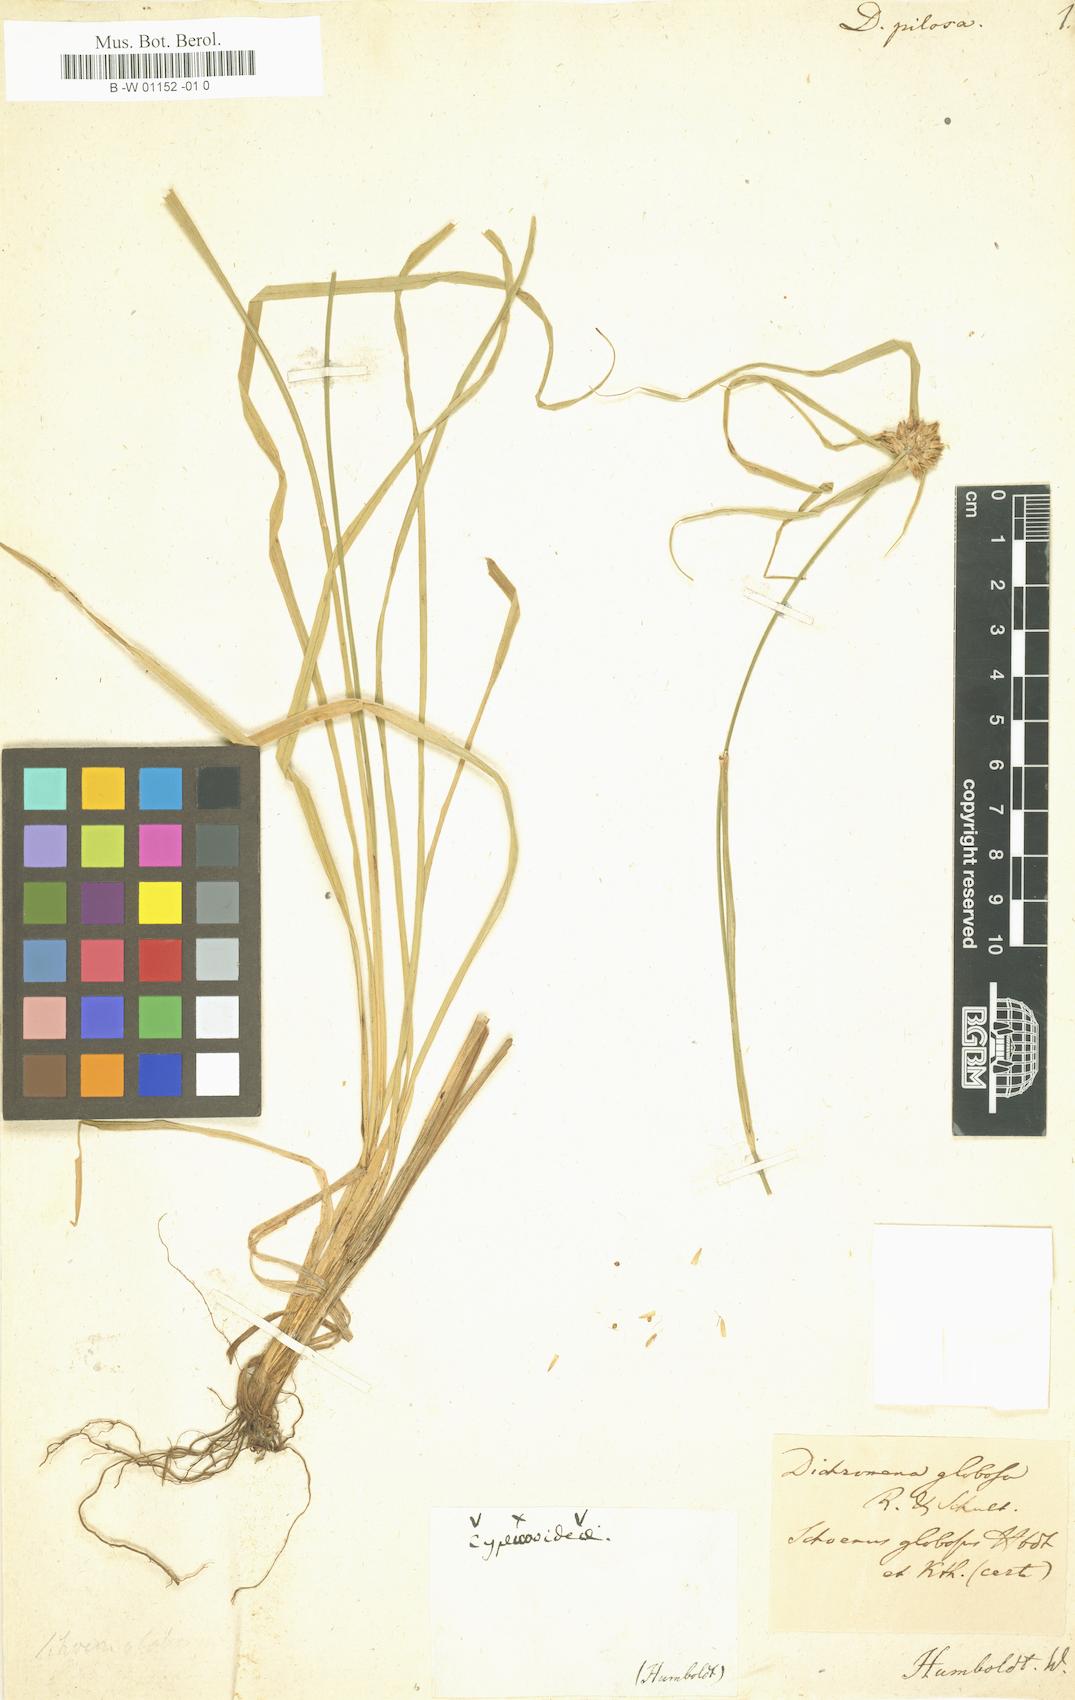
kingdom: Plantae
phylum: Tracheophyta
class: Liliopsida
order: Poales
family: Cyperaceae
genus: Rhynchospora
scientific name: Rhynchospora pilosa
